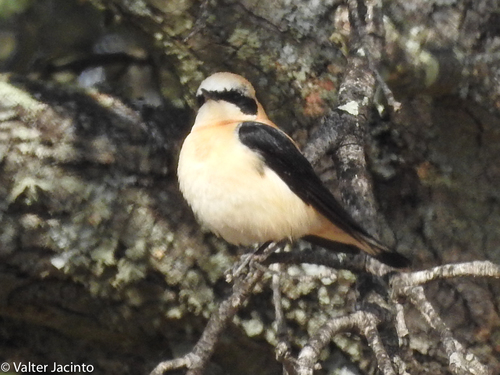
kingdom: Animalia
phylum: Chordata
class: Aves
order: Passeriformes
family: Muscicapidae
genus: Oenanthe
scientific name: Oenanthe hispanica
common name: Black-eared wheatear
